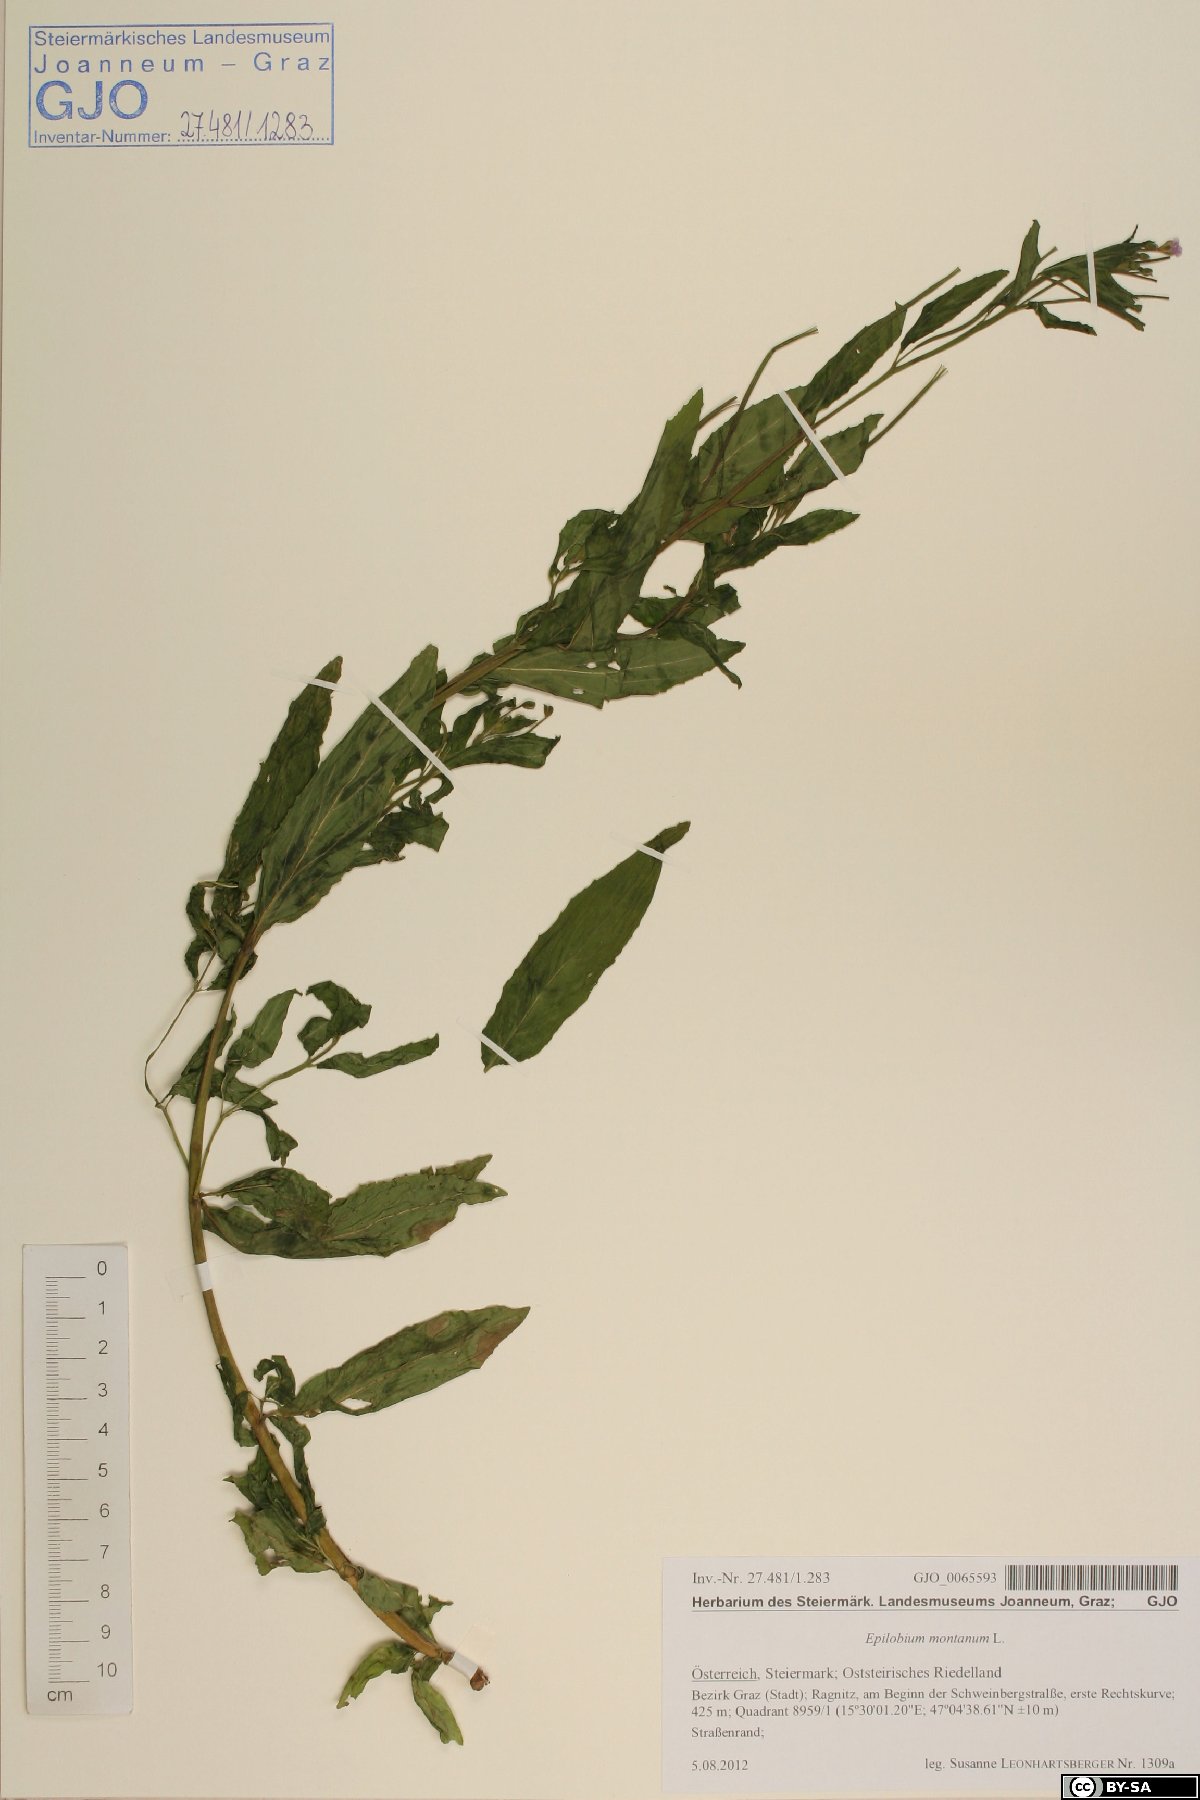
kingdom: Plantae
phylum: Tracheophyta
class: Magnoliopsida
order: Myrtales
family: Onagraceae
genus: Epilobium
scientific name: Epilobium montanum
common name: Broad-leaved willowherb
